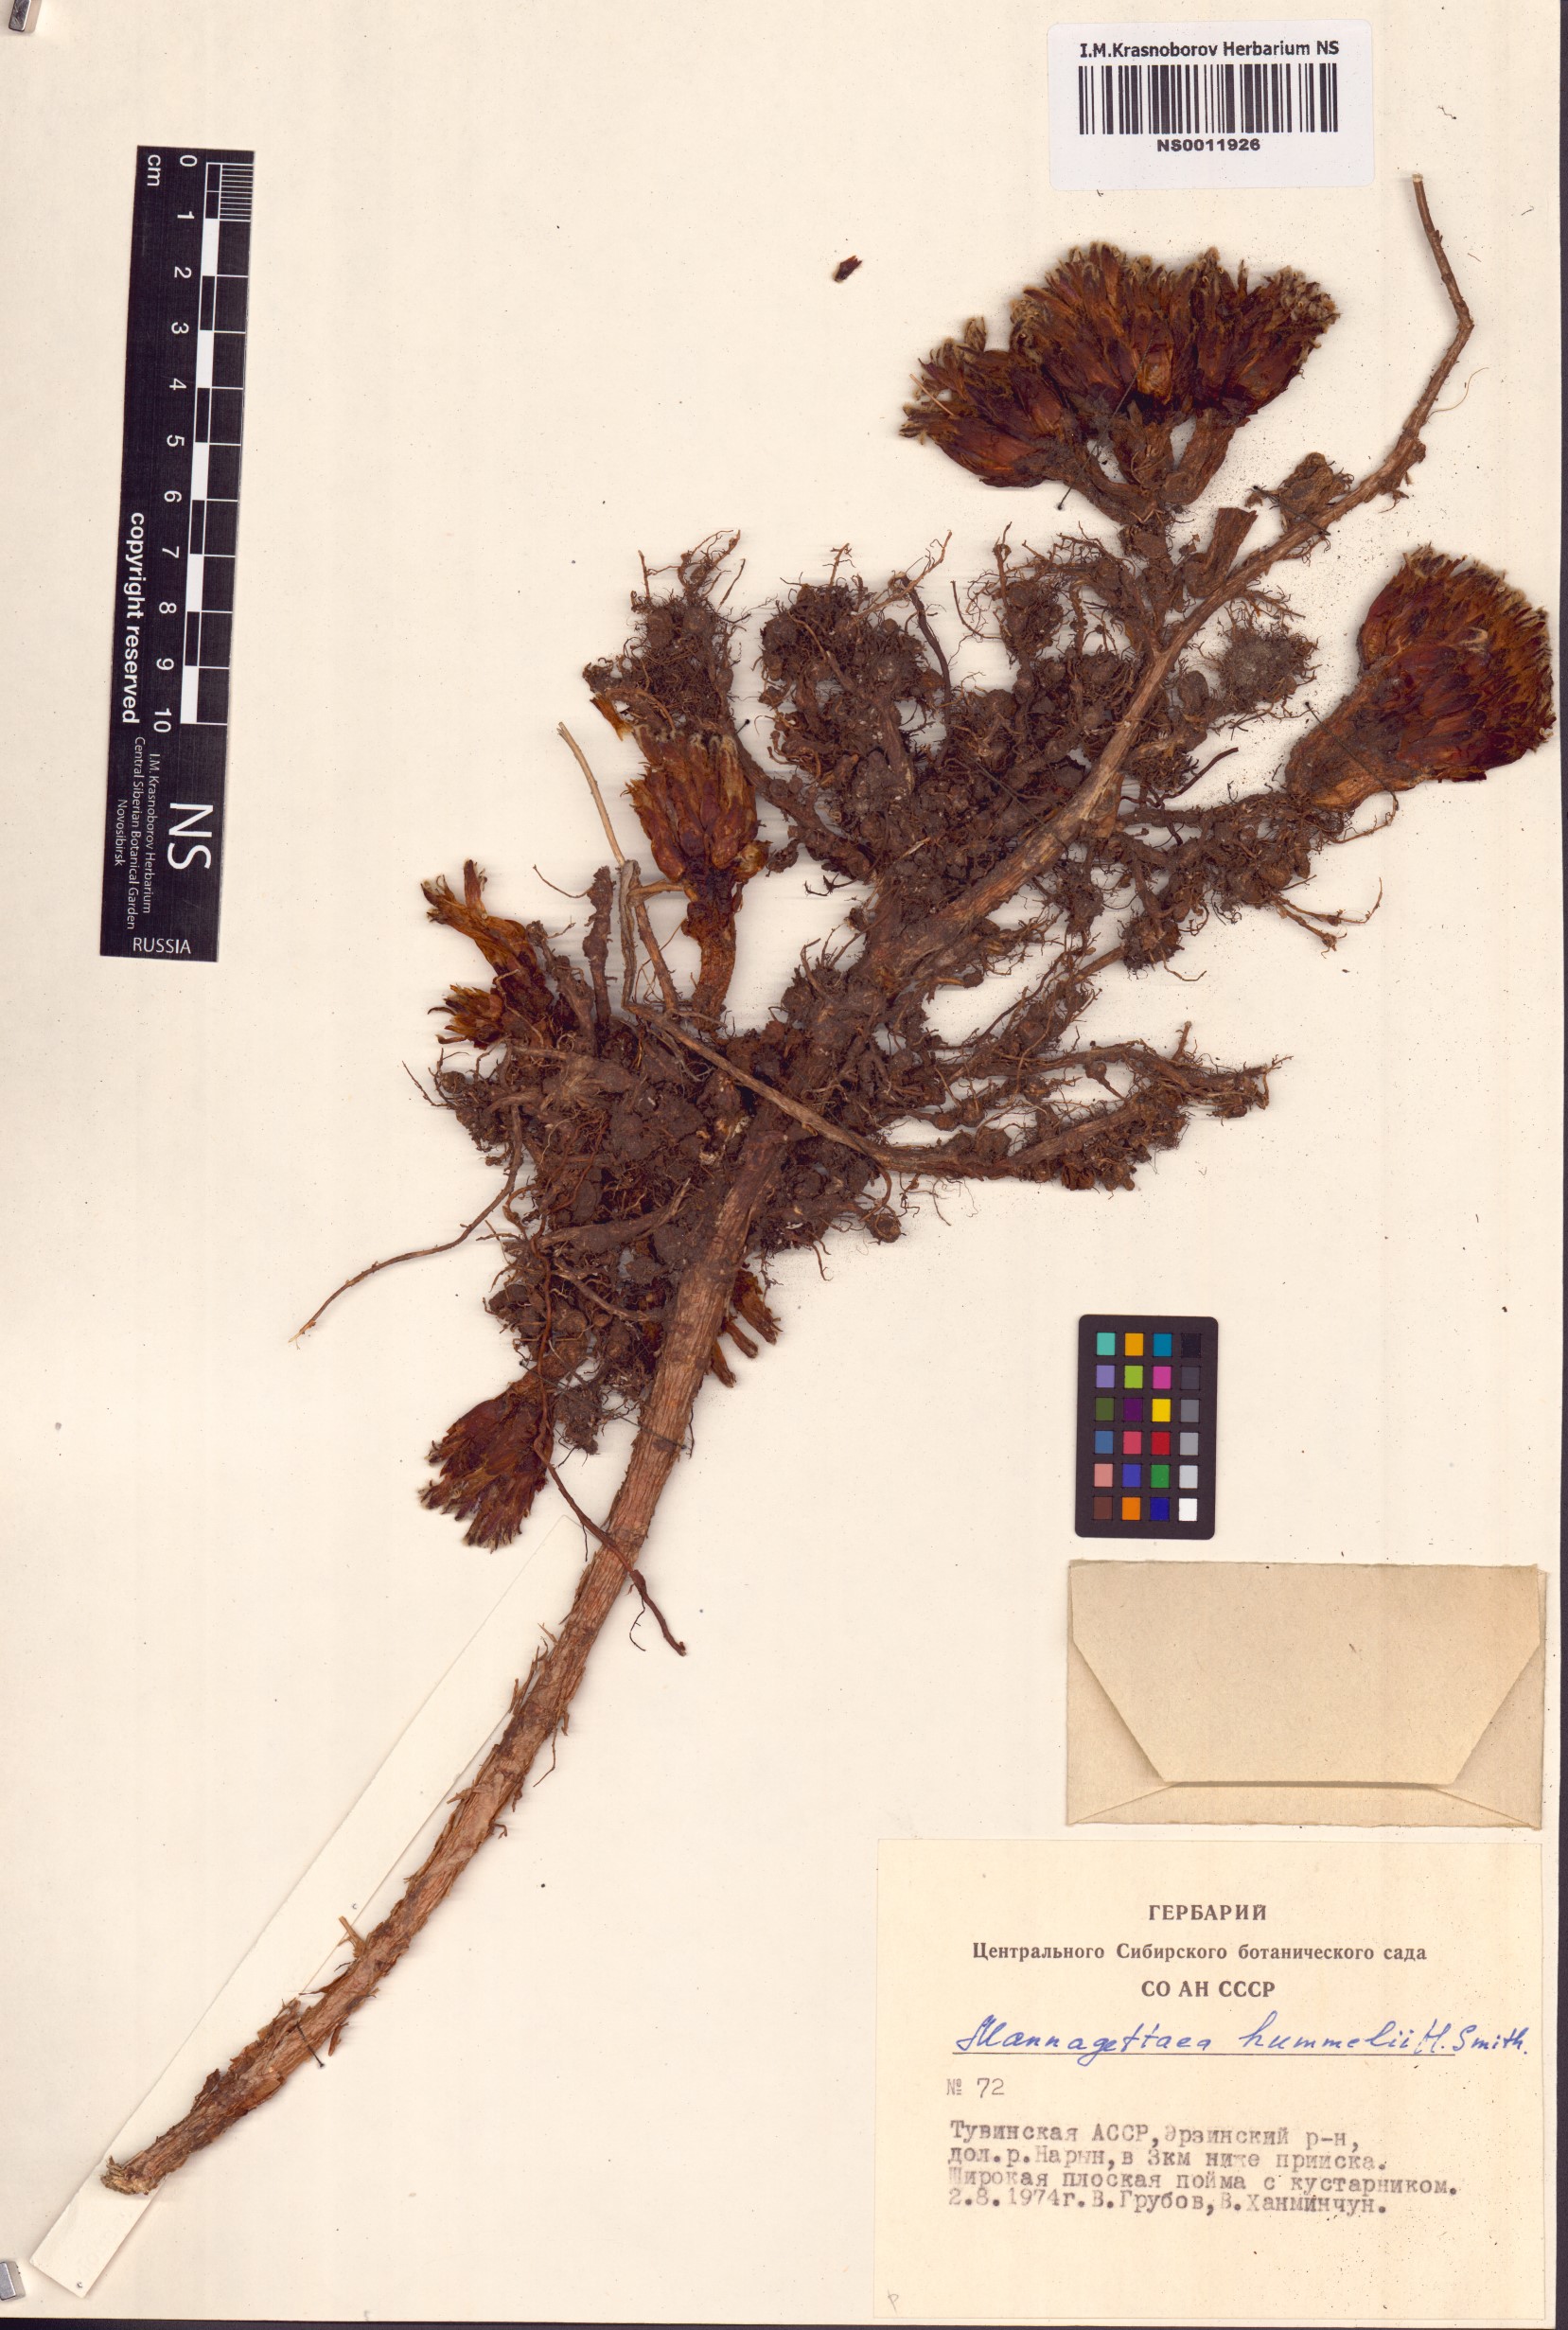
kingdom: Plantae
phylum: Tracheophyta
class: Magnoliopsida
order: Lamiales
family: Orobanchaceae
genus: Mannagettaea
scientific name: Mannagettaea hummelii
